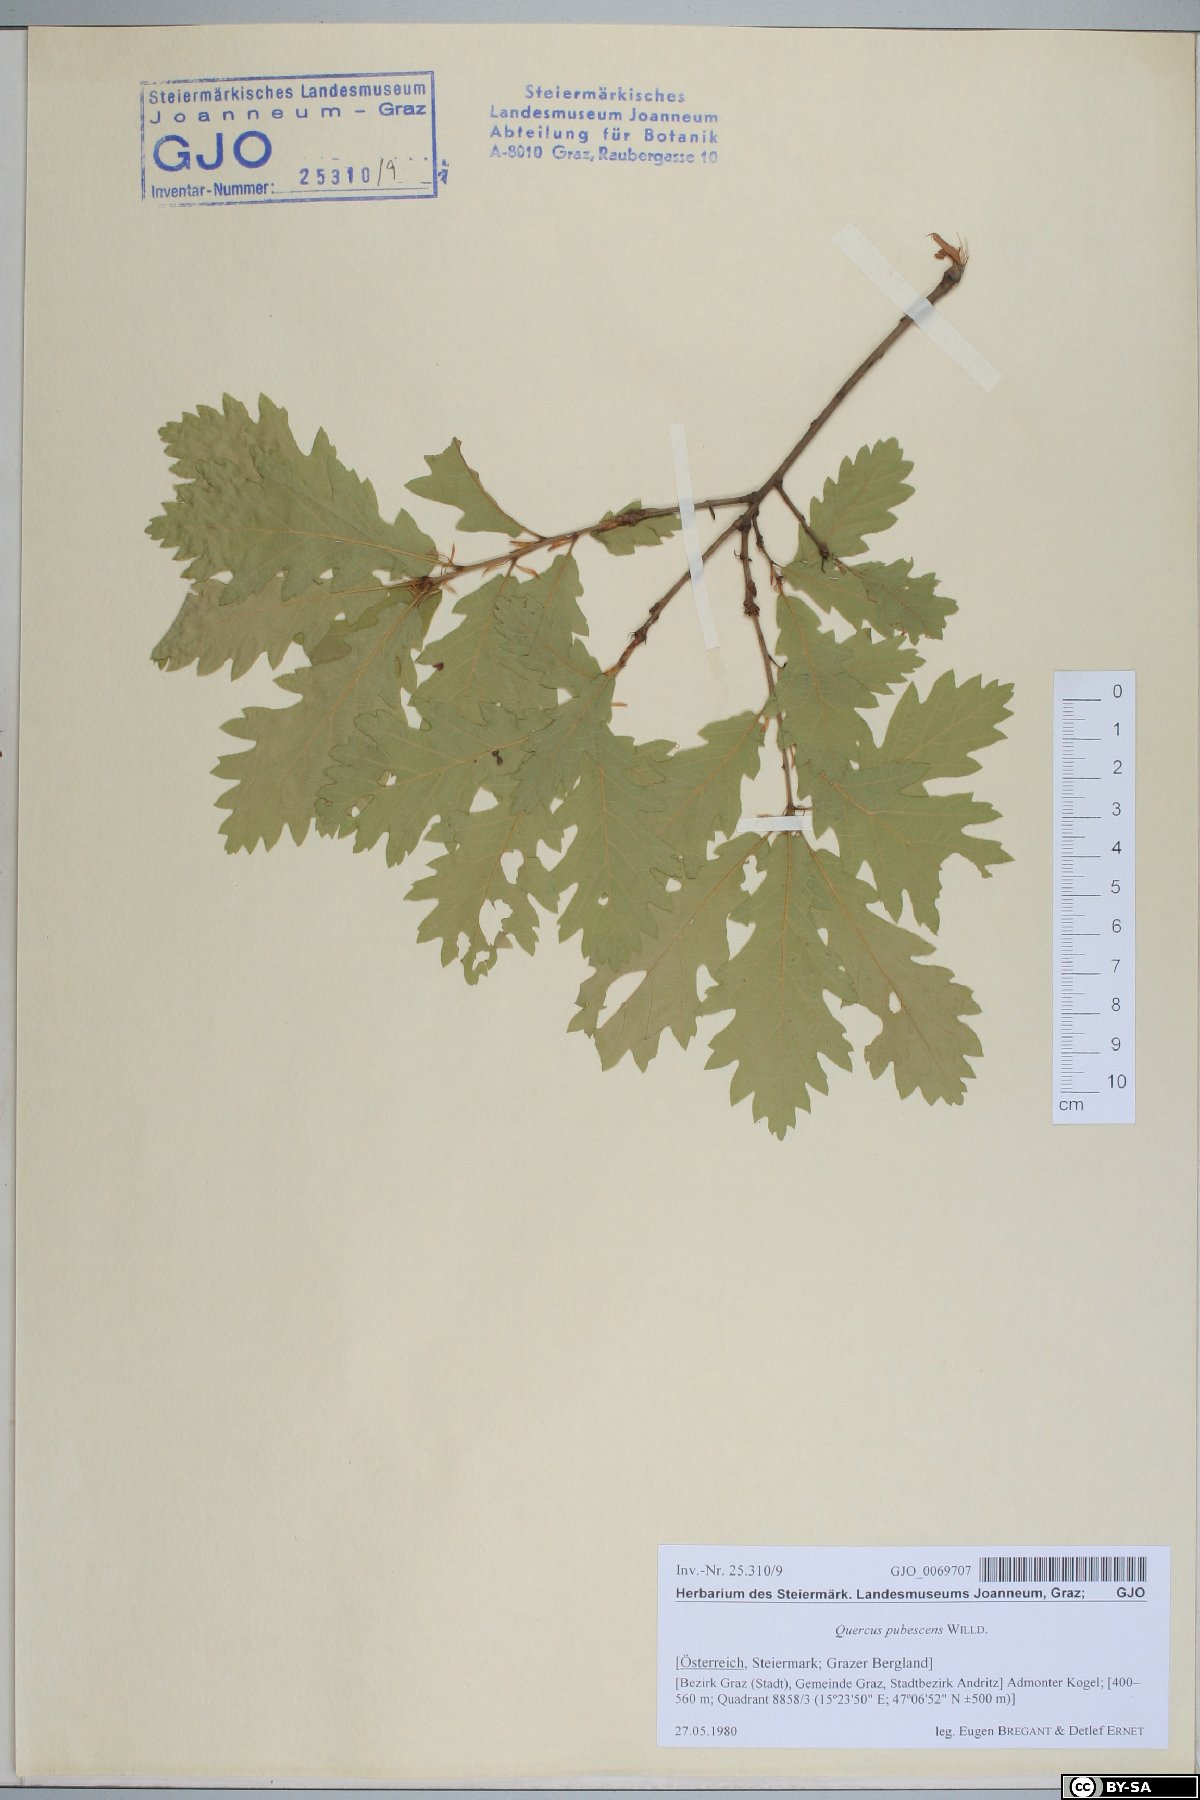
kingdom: Plantae
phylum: Tracheophyta
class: Magnoliopsida
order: Fagales
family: Fagaceae
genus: Quercus
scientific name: Quercus pubescens
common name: Downy oak
